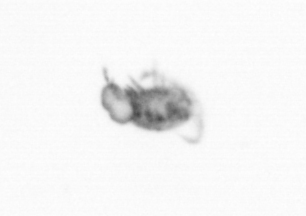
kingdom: Animalia
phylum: Arthropoda
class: Copepoda
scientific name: Copepoda
